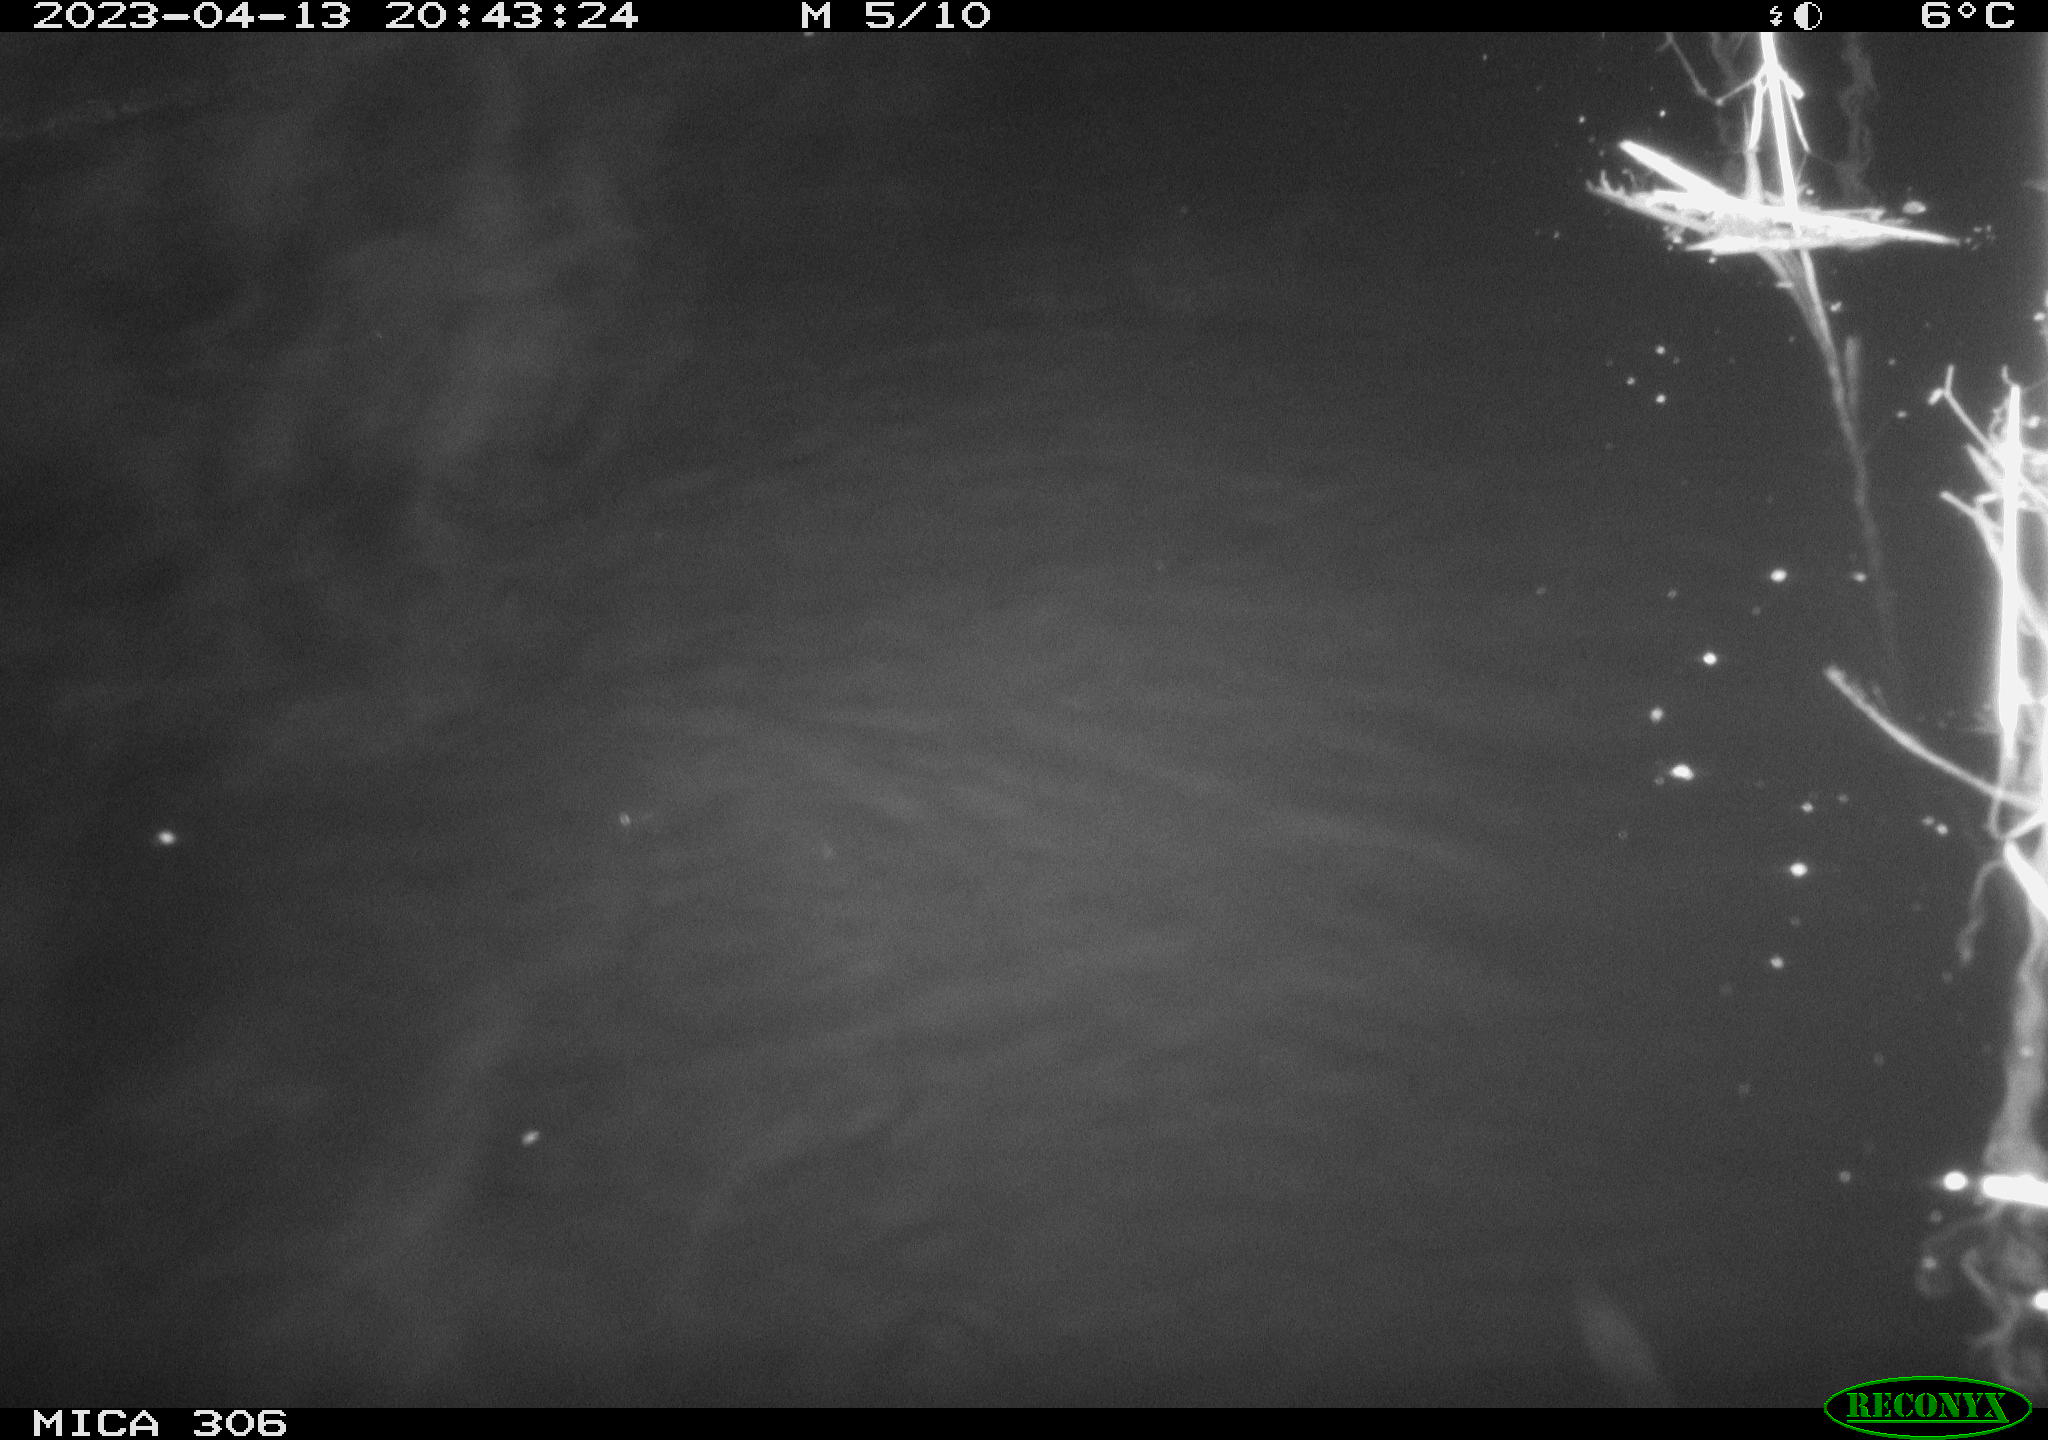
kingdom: Animalia
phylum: Chordata
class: Mammalia
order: Rodentia
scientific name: Rodentia
